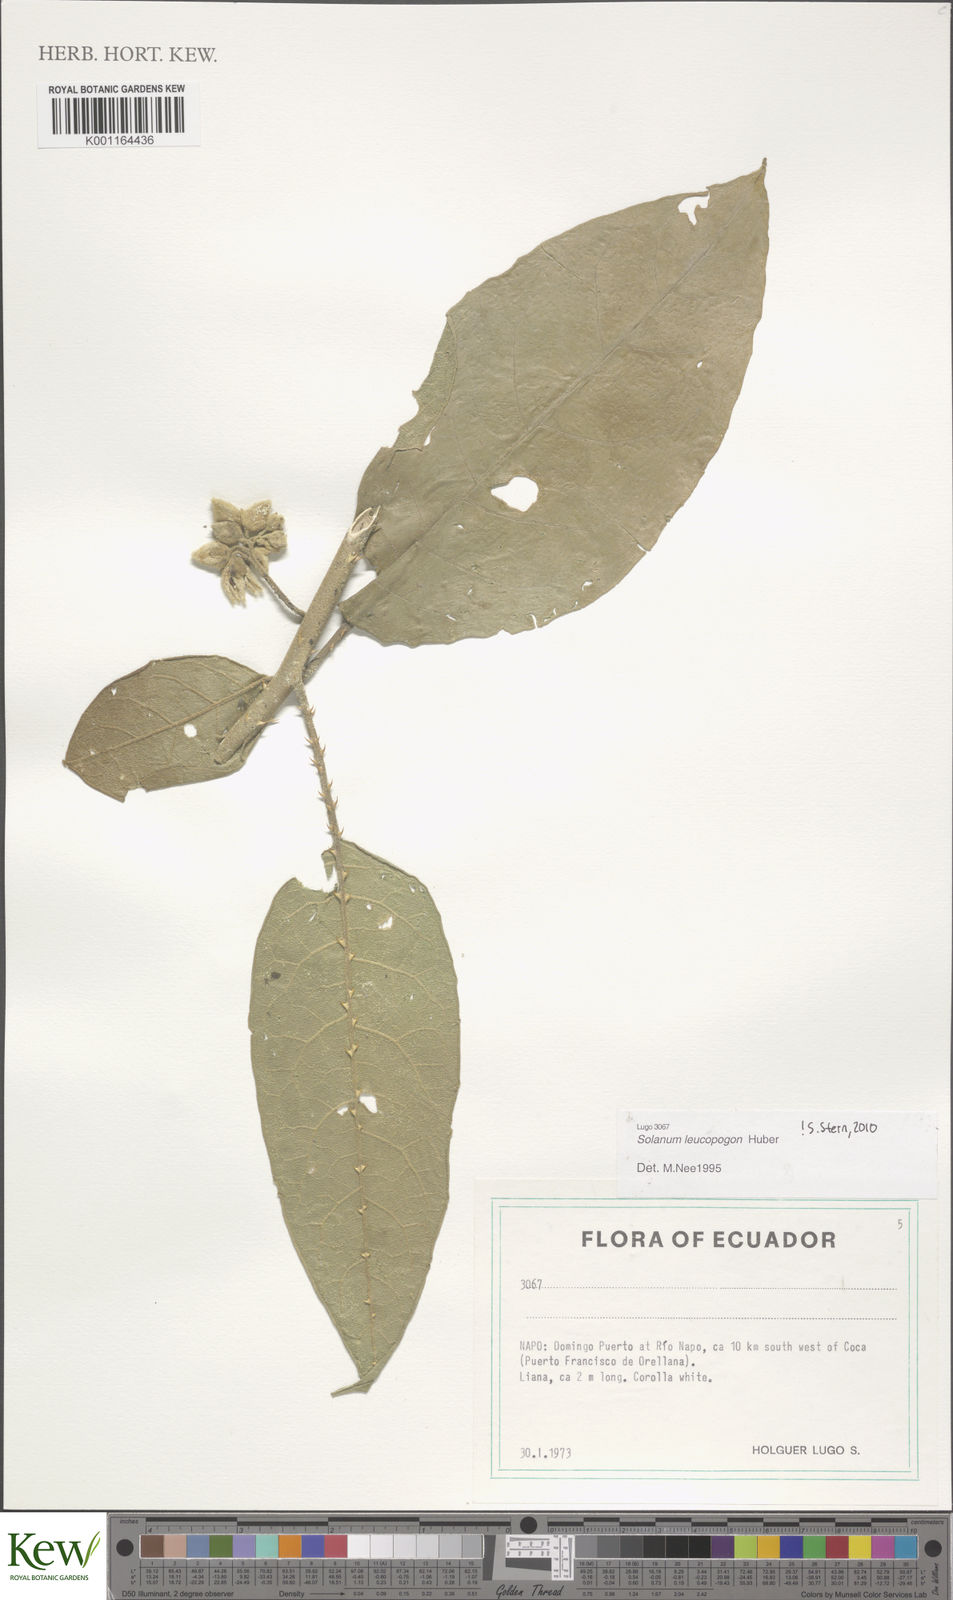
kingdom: Plantae
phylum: Tracheophyta
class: Magnoliopsida
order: Solanales
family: Solanaceae
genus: Solanum
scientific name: Solanum leucopogon
